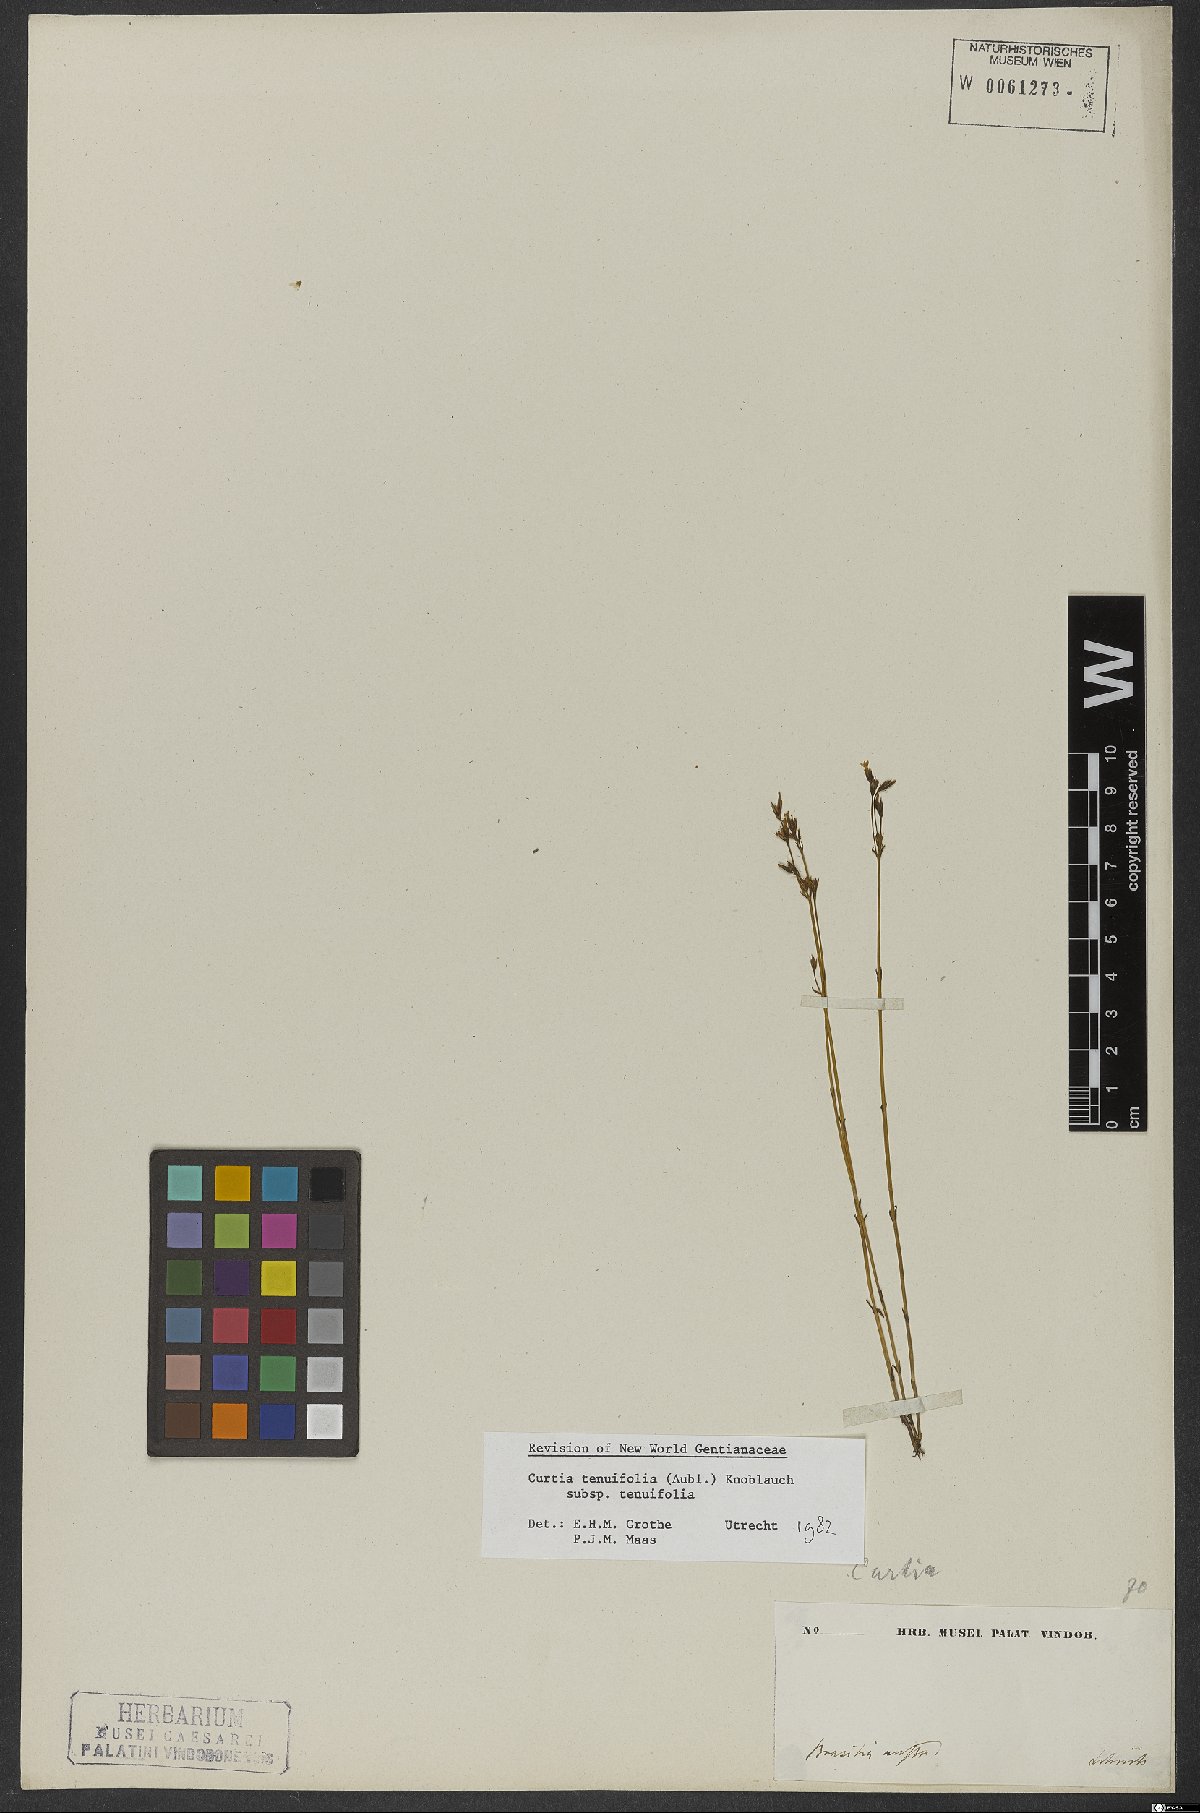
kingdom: Plantae
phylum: Tracheophyta
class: Magnoliopsida
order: Gentianales
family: Gentianaceae
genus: Curtia
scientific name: Curtia tenuifolia
